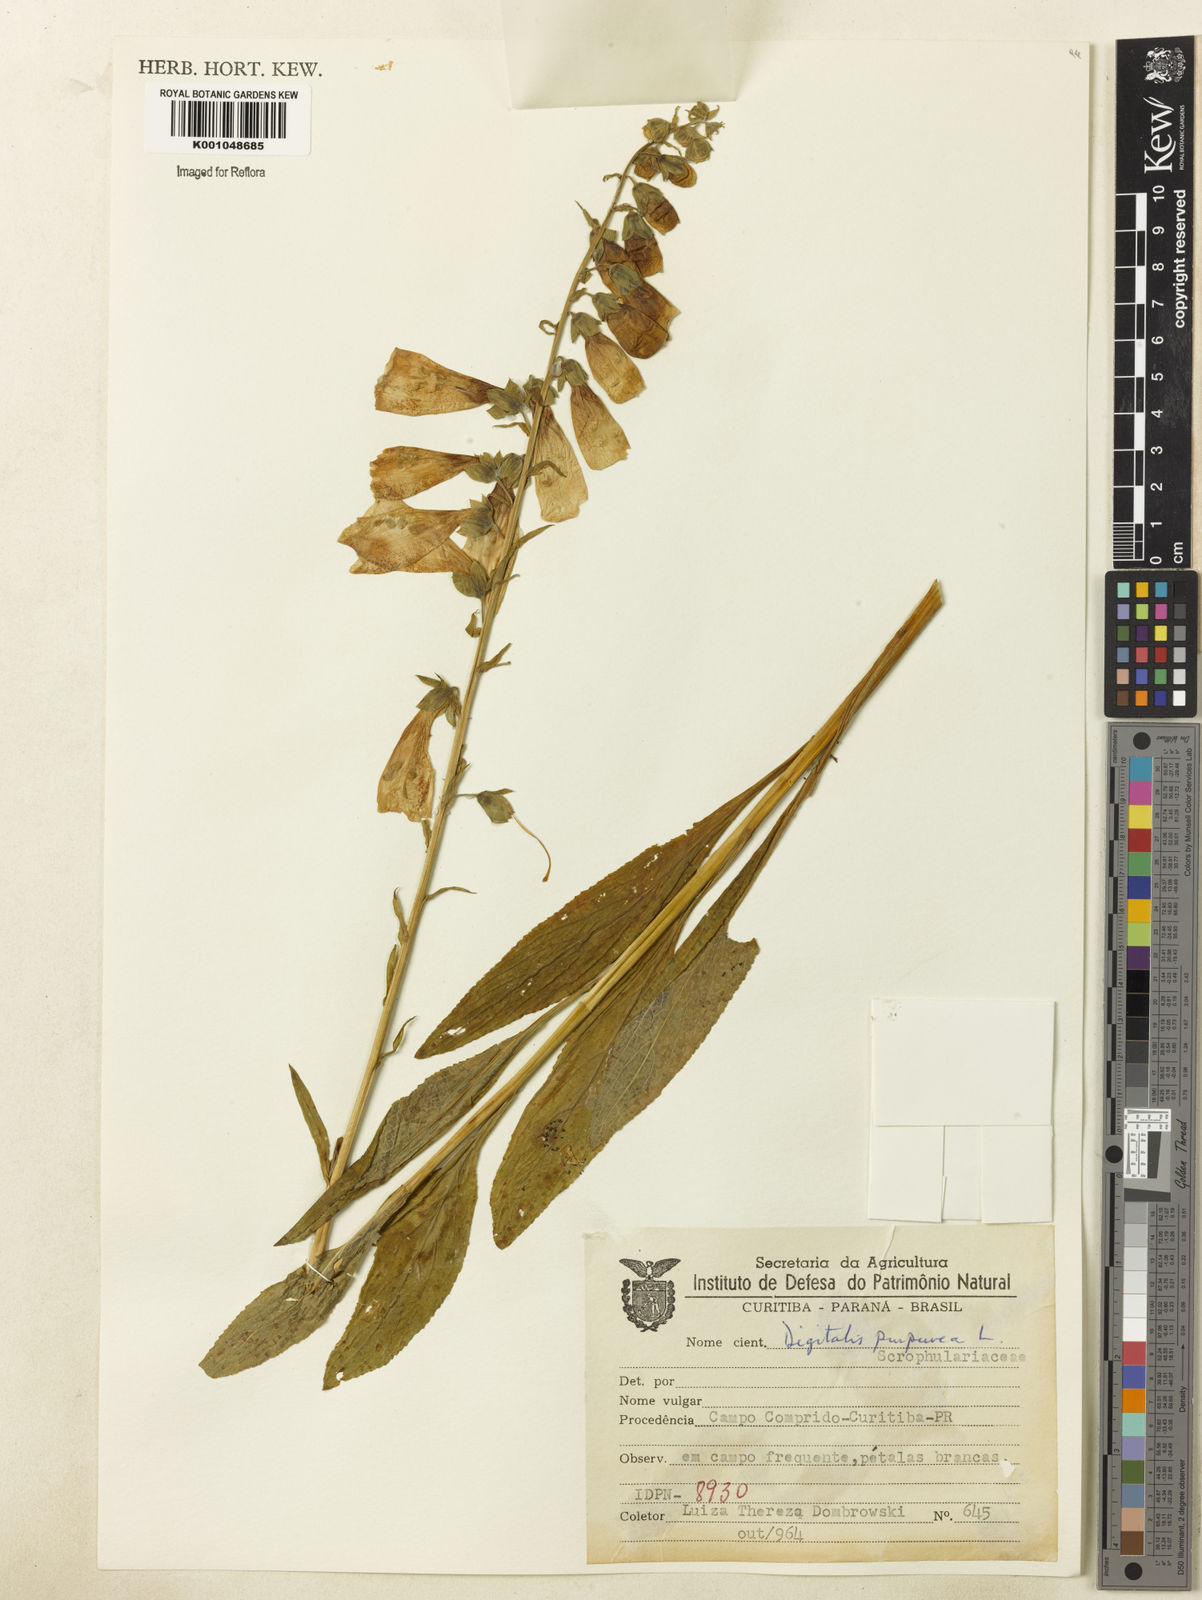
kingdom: Plantae
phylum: Tracheophyta
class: Magnoliopsida
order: Lamiales
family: Plantaginaceae
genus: Digitalis
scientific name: Digitalis purpurea
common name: Foxglove
